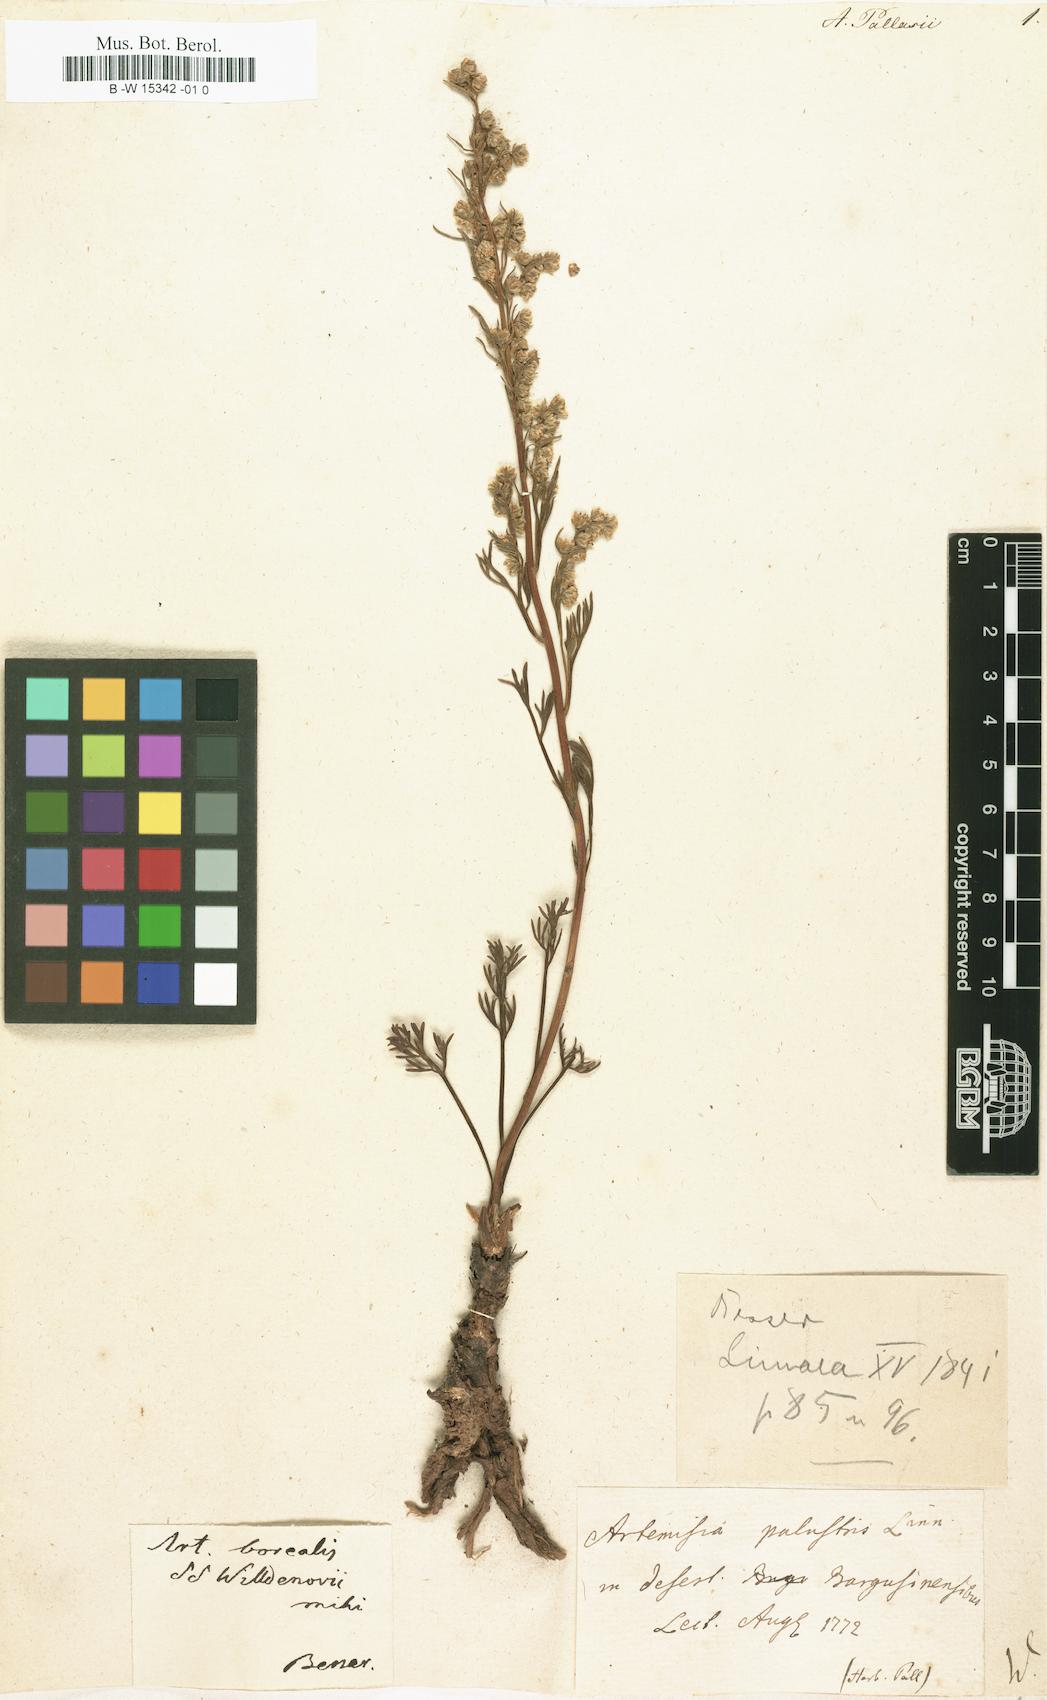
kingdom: Plantae
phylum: Tracheophyta
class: Magnoliopsida
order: Asterales
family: Asteraceae
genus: Artemisia
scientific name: Artemisia borealis
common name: Boreal sage
